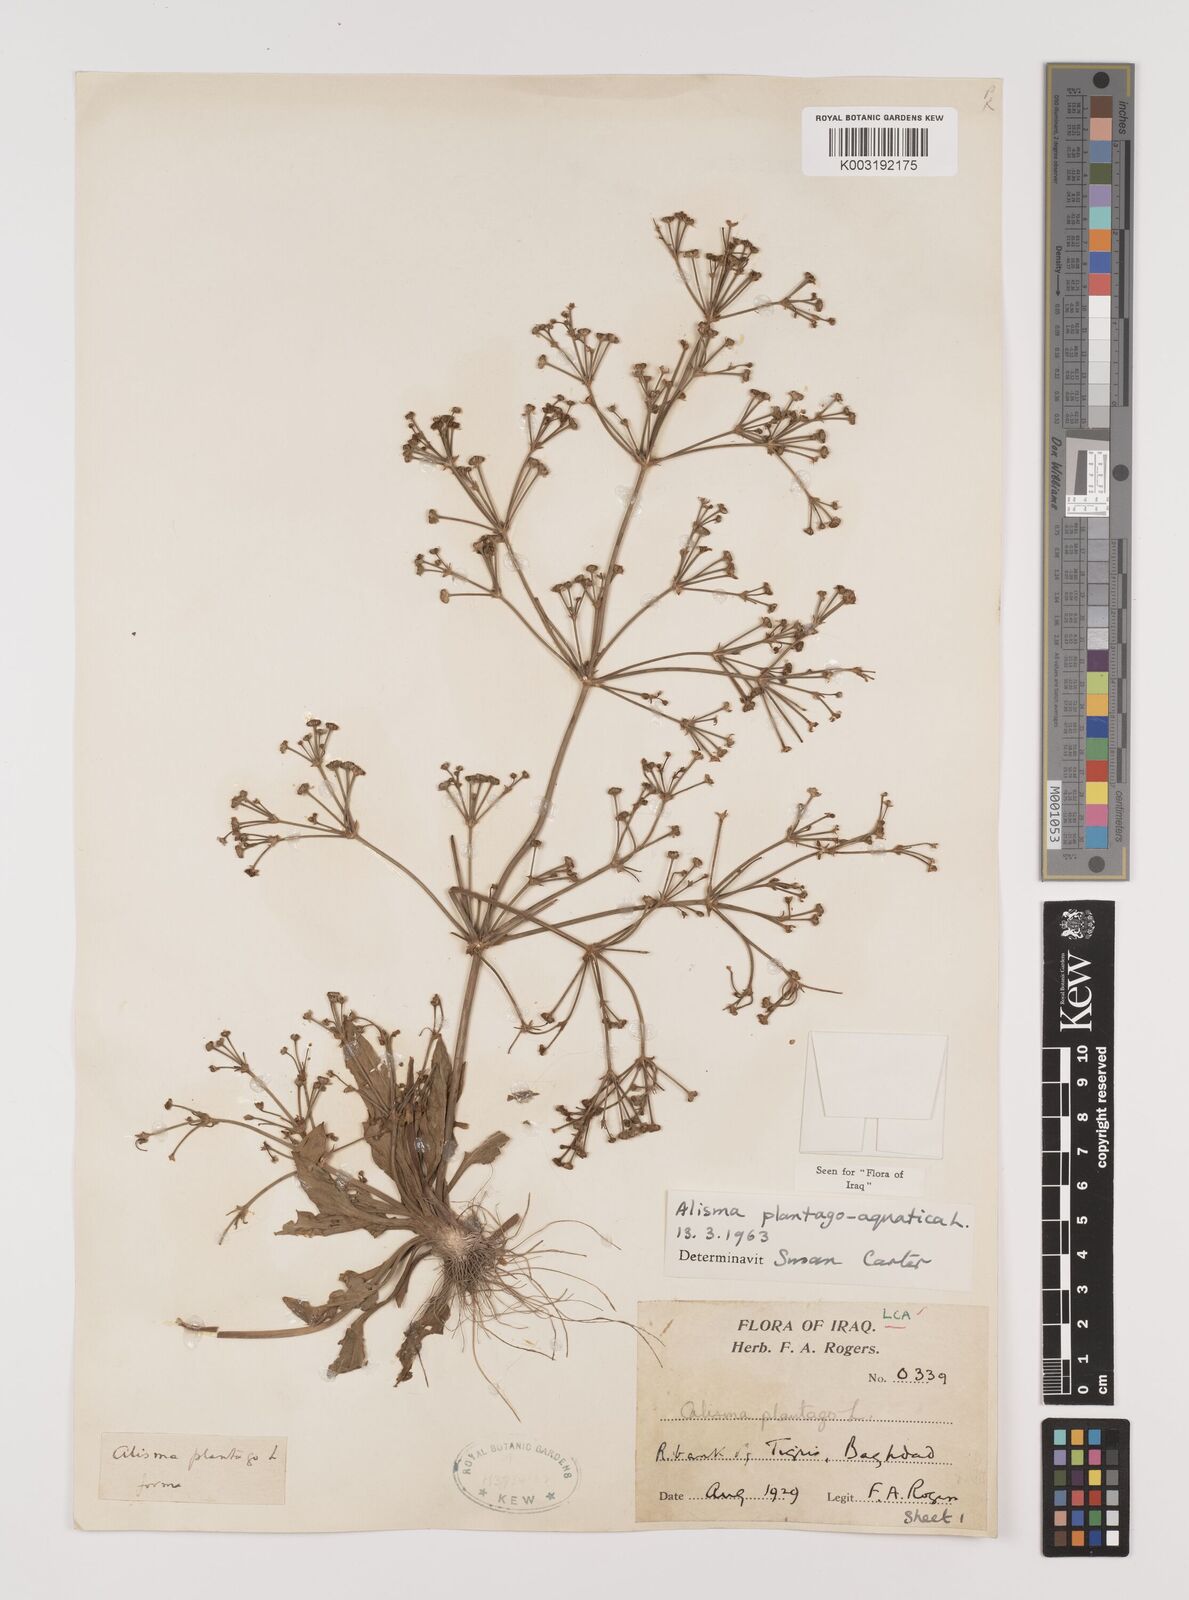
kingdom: Plantae
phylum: Tracheophyta
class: Liliopsida
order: Alismatales
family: Alismataceae
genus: Alisma
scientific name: Alisma plantago-aquatica
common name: Water-plantain
